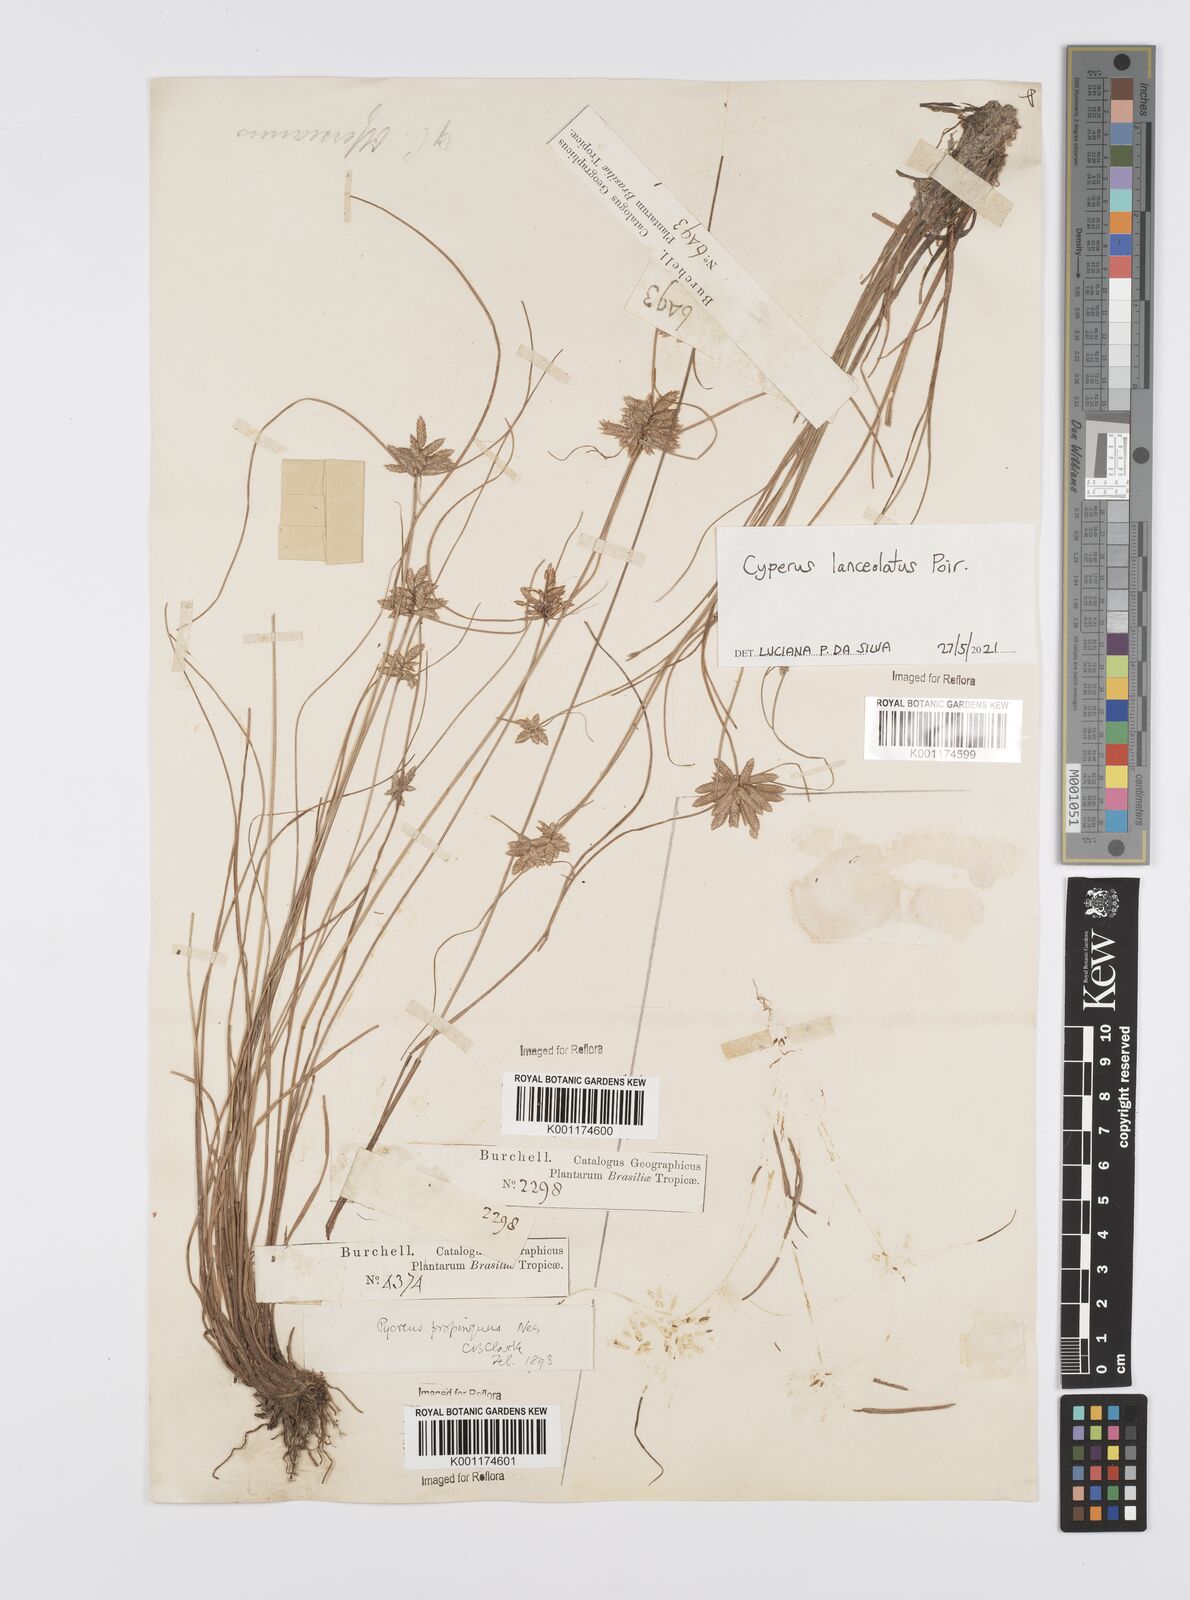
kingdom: Plantae
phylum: Tracheophyta
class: Liliopsida
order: Poales
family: Cyperaceae
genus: Cyperus
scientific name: Cyperus lanceolatus
